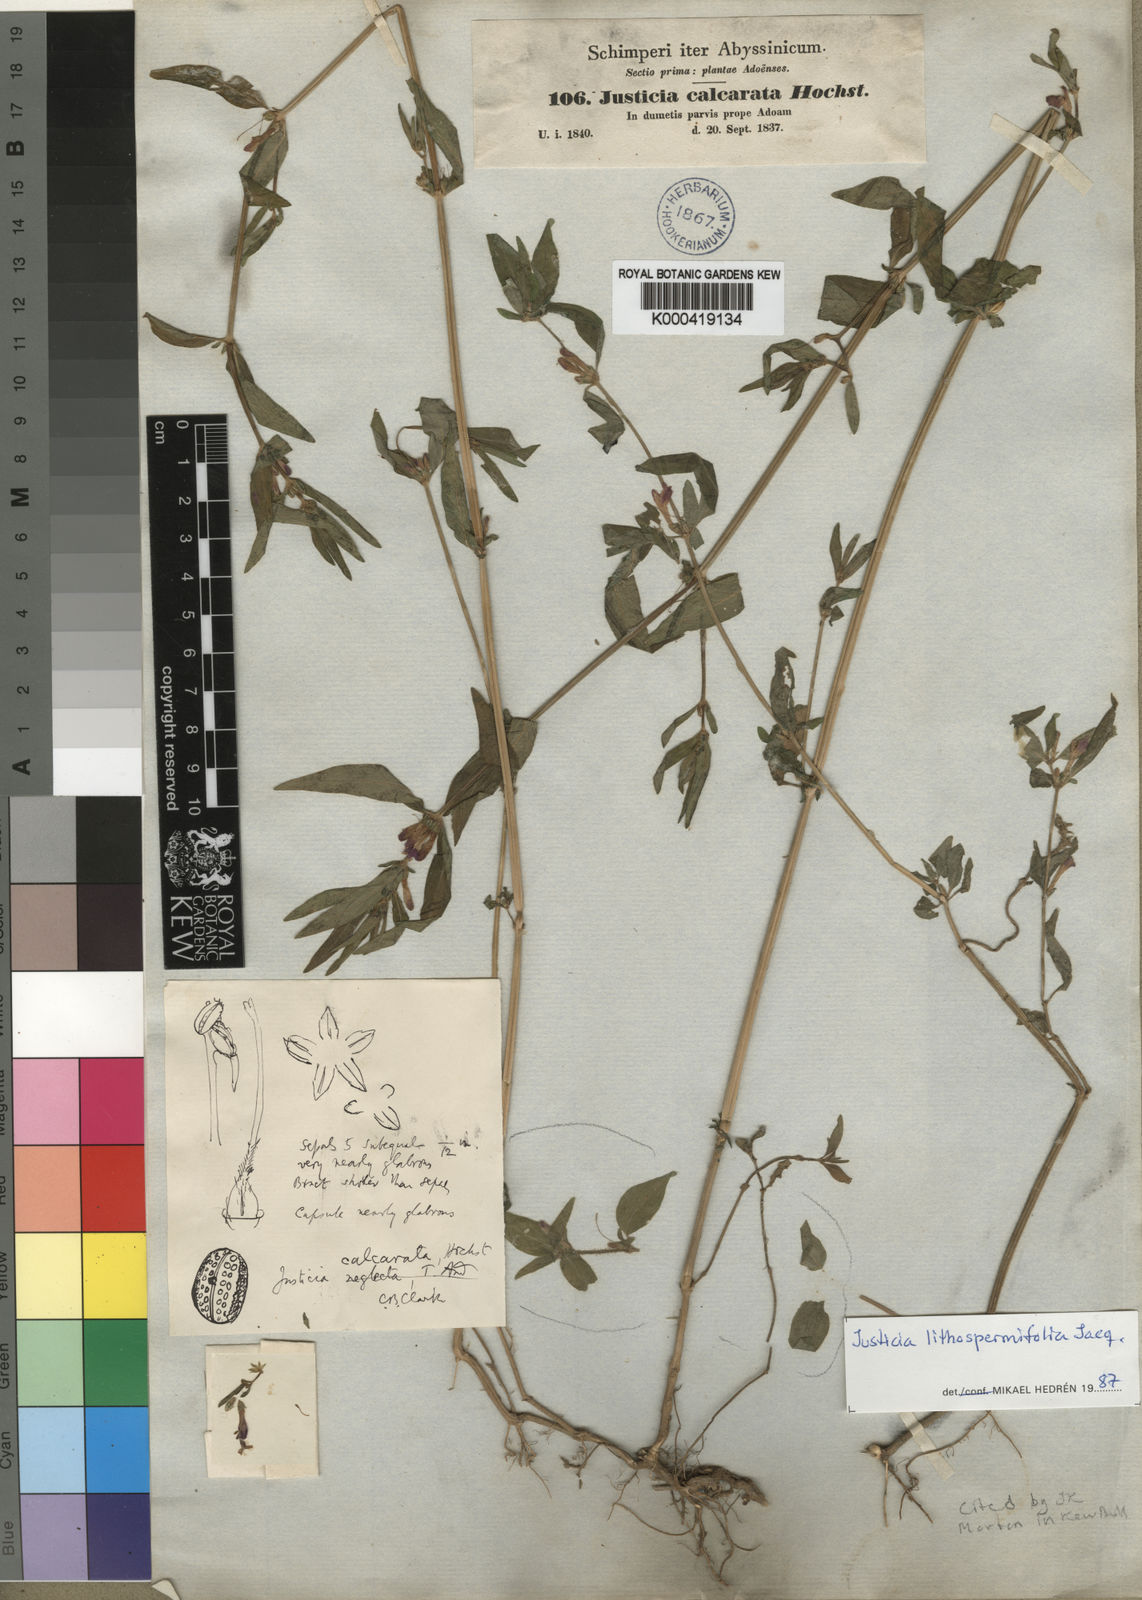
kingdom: Plantae
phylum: Tracheophyta
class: Magnoliopsida
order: Lamiales
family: Acanthaceae
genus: Justicia
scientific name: Justicia ladanoides
